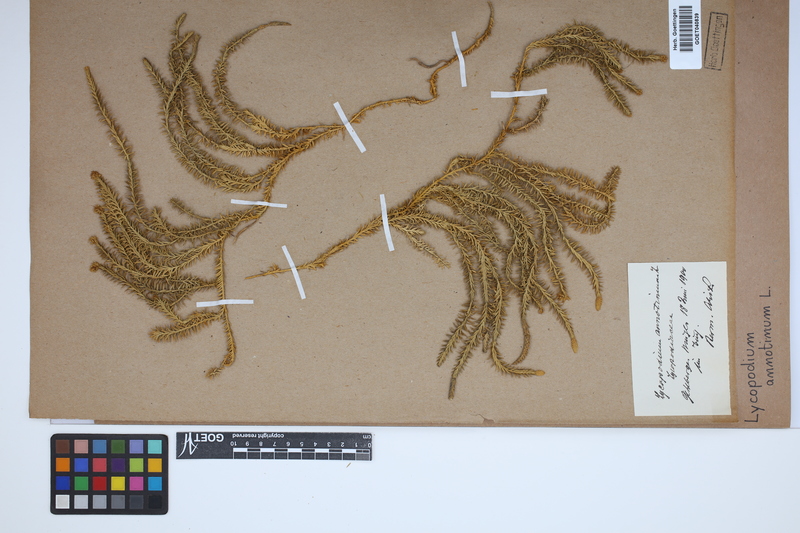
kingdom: Plantae
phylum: Tracheophyta
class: Lycopodiopsida
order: Lycopodiales
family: Lycopodiaceae
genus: Spinulum
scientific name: Spinulum annotinum
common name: Interrupted club-moss
